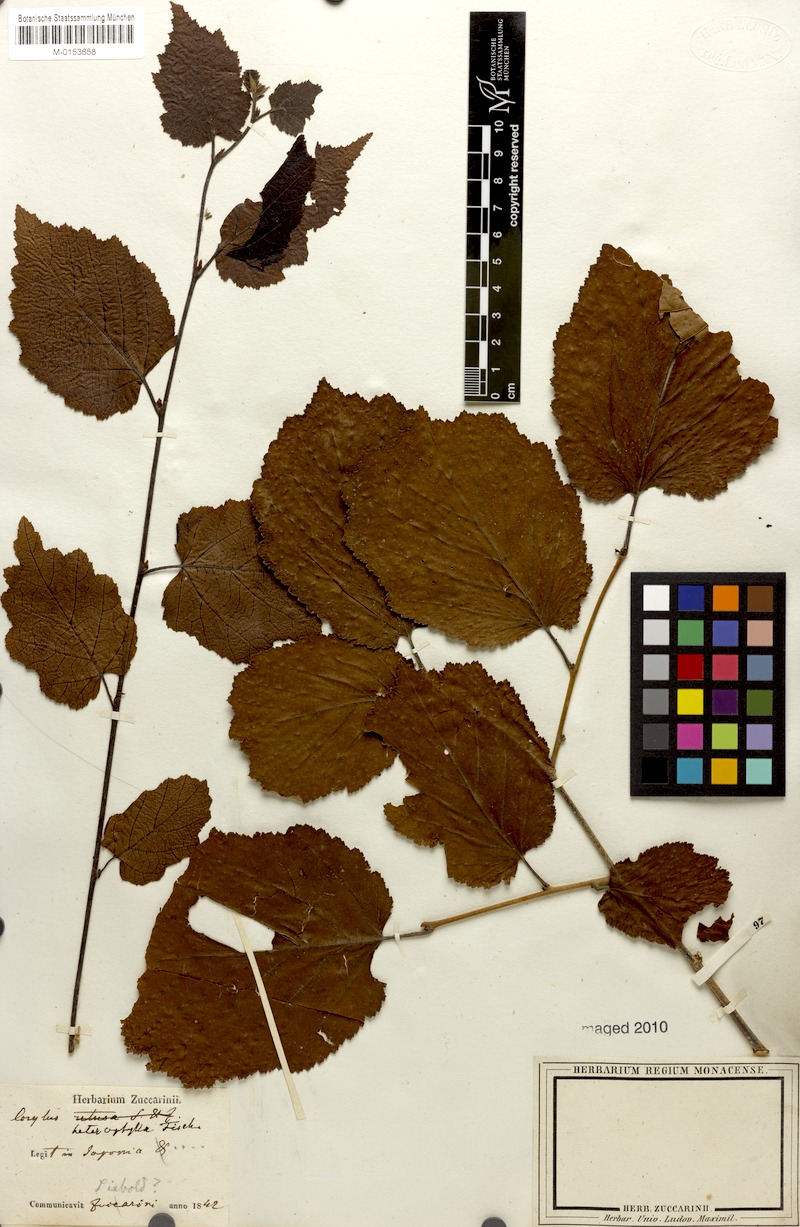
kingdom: Plantae
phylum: Tracheophyta
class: Magnoliopsida
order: Fagales
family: Betulaceae
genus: Corylus
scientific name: Corylus heterophylla
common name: Siberian hazelnut
